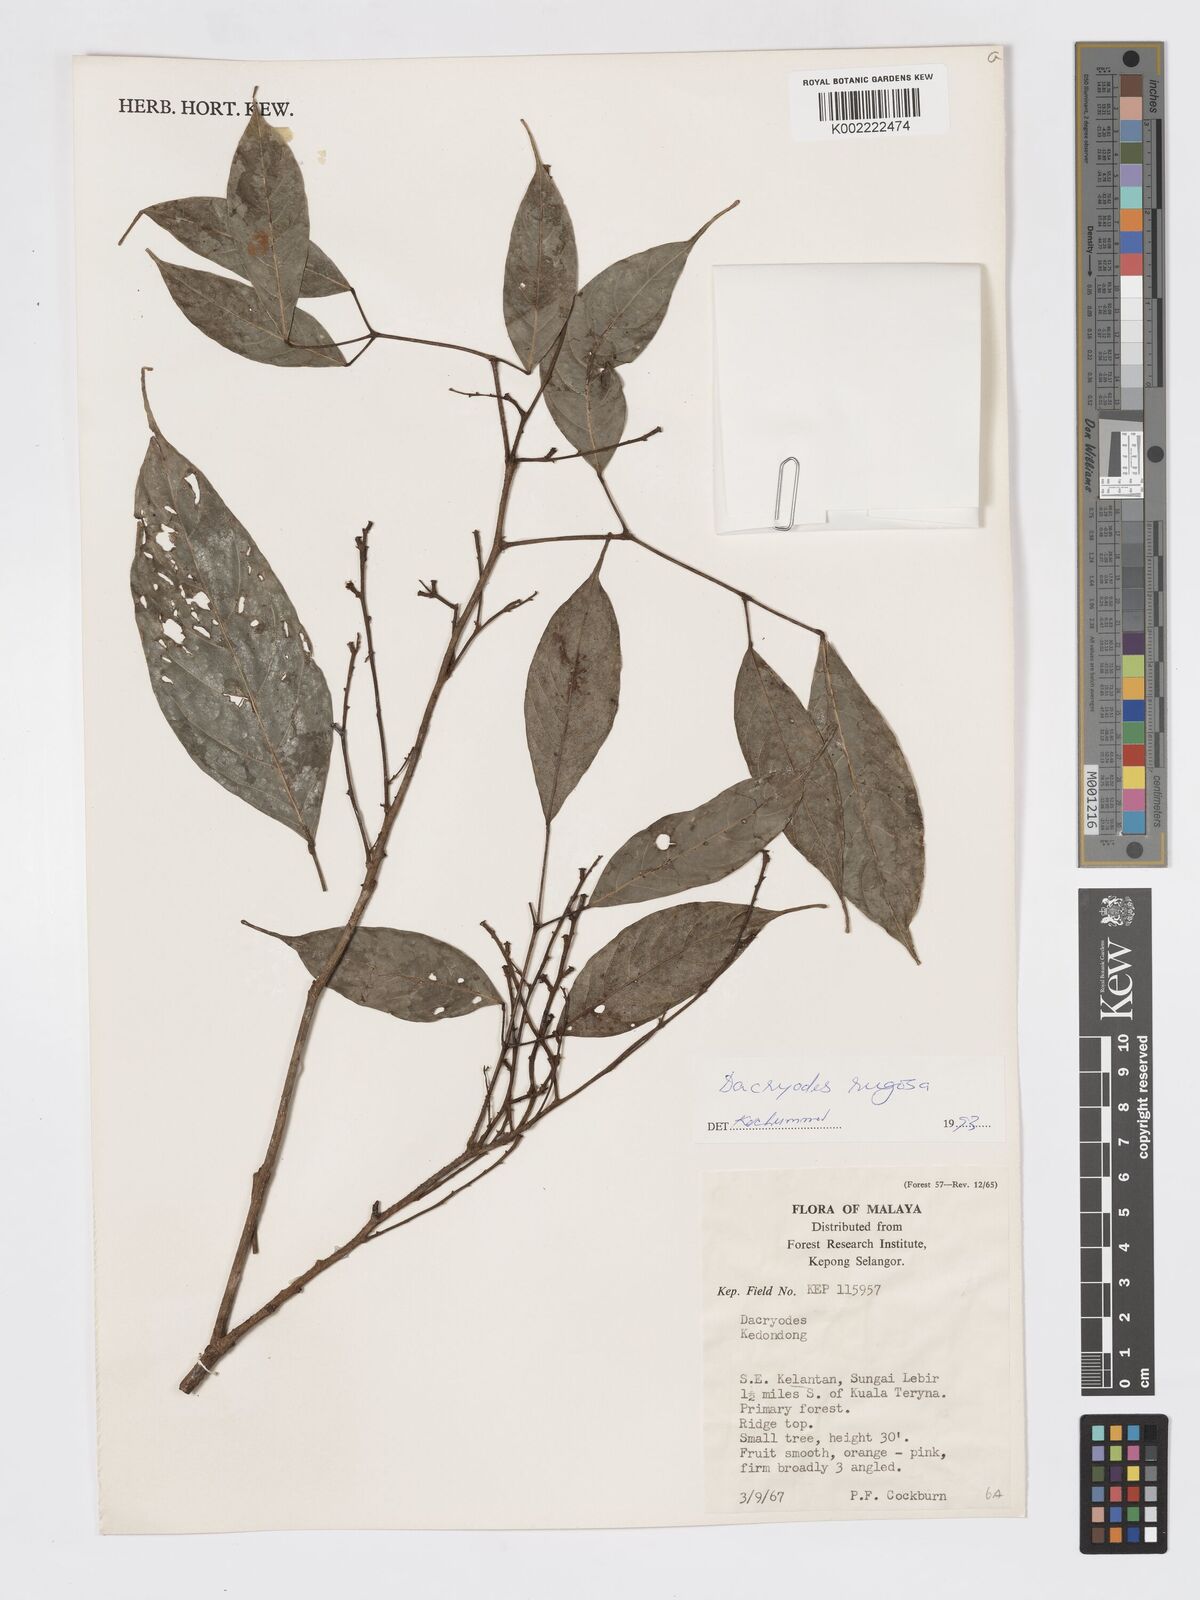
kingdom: Plantae
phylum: Tracheophyta
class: Magnoliopsida
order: Sapindales
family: Burseraceae
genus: Dacryodes
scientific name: Dacryodes rugosa
